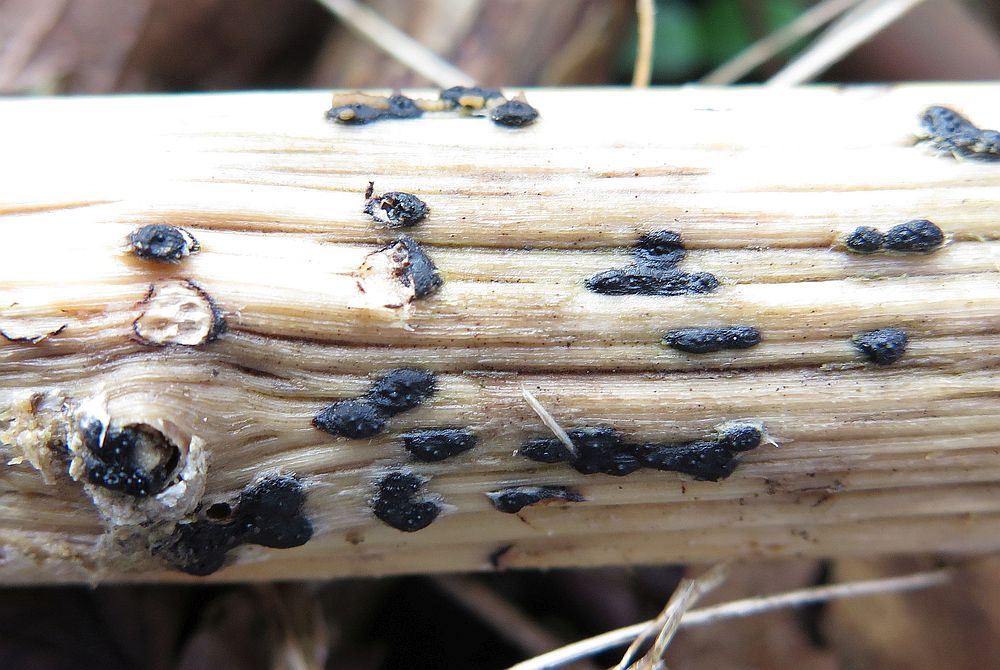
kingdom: Fungi
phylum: Ascomycota
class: Sordariomycetes
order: Xylariales
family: Xylariaceae
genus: Euepixylon
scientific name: Euepixylon udum
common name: ege-kuldyne
